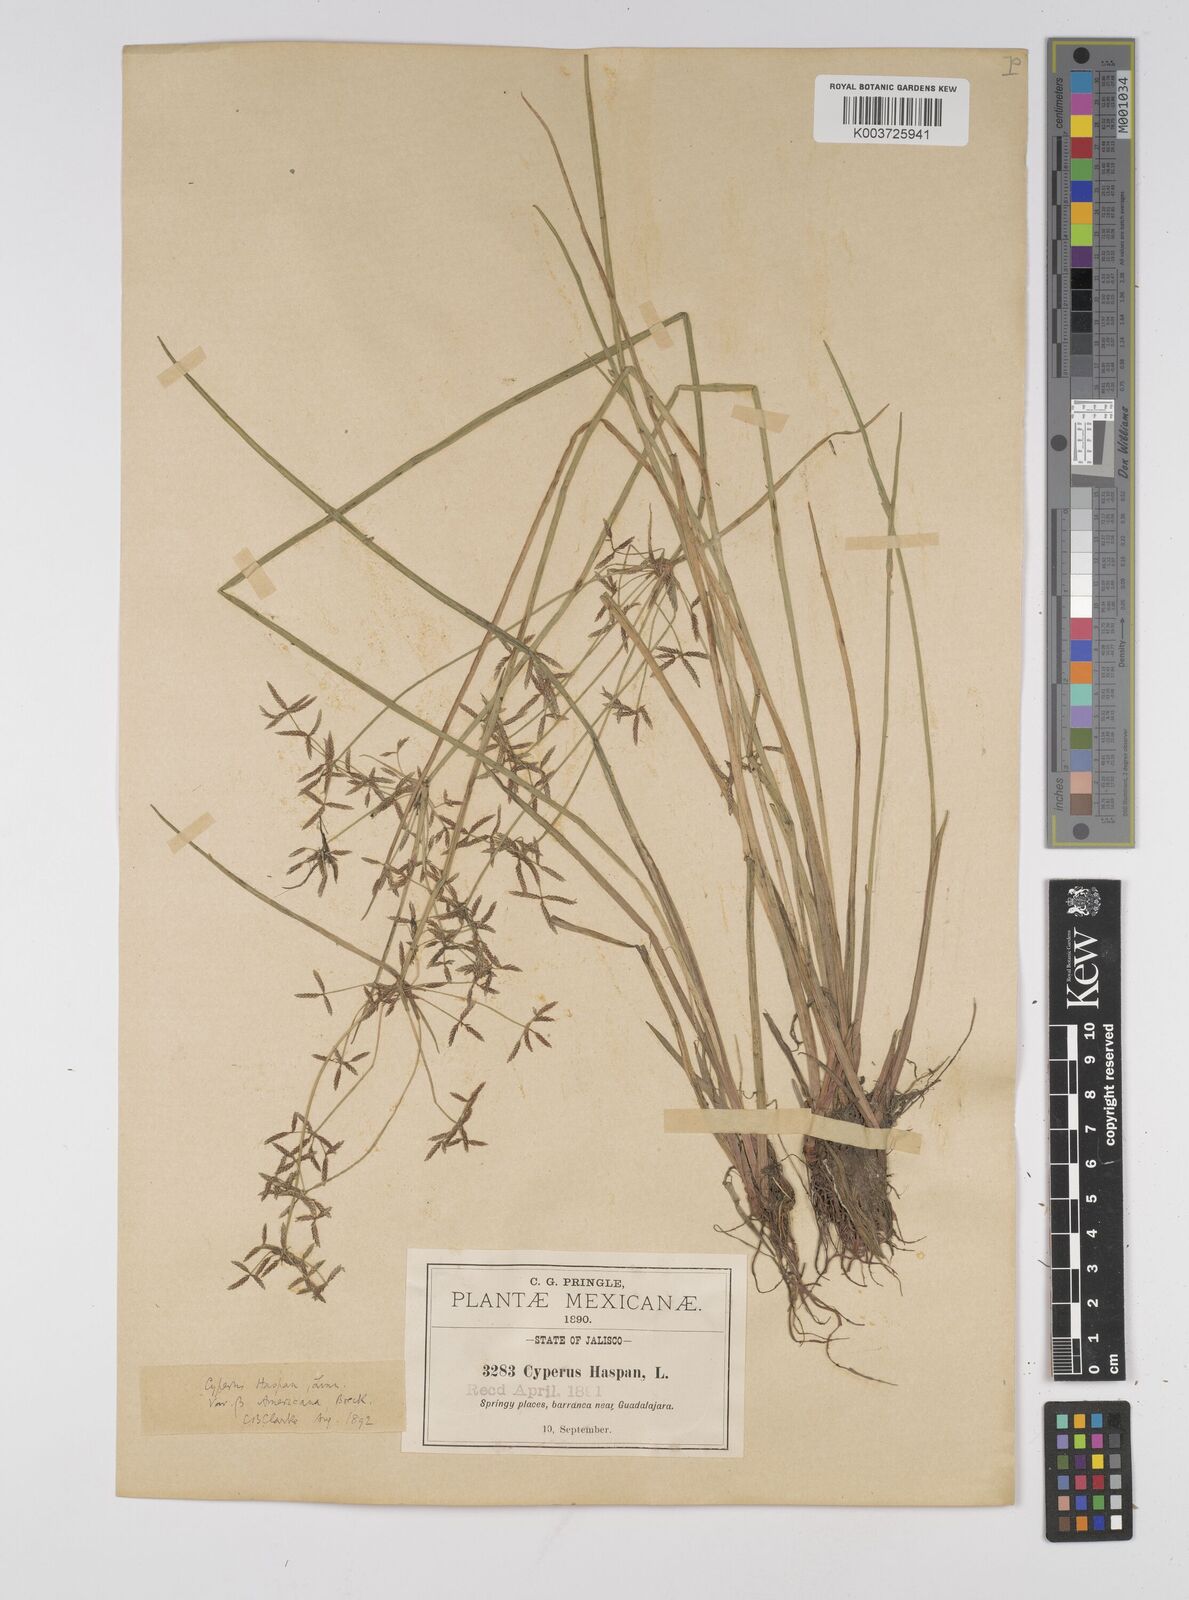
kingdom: Plantae
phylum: Tracheophyta
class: Liliopsida
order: Poales
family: Cyperaceae
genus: Cyperus
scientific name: Cyperus haspan
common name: Haspan flatsedge
